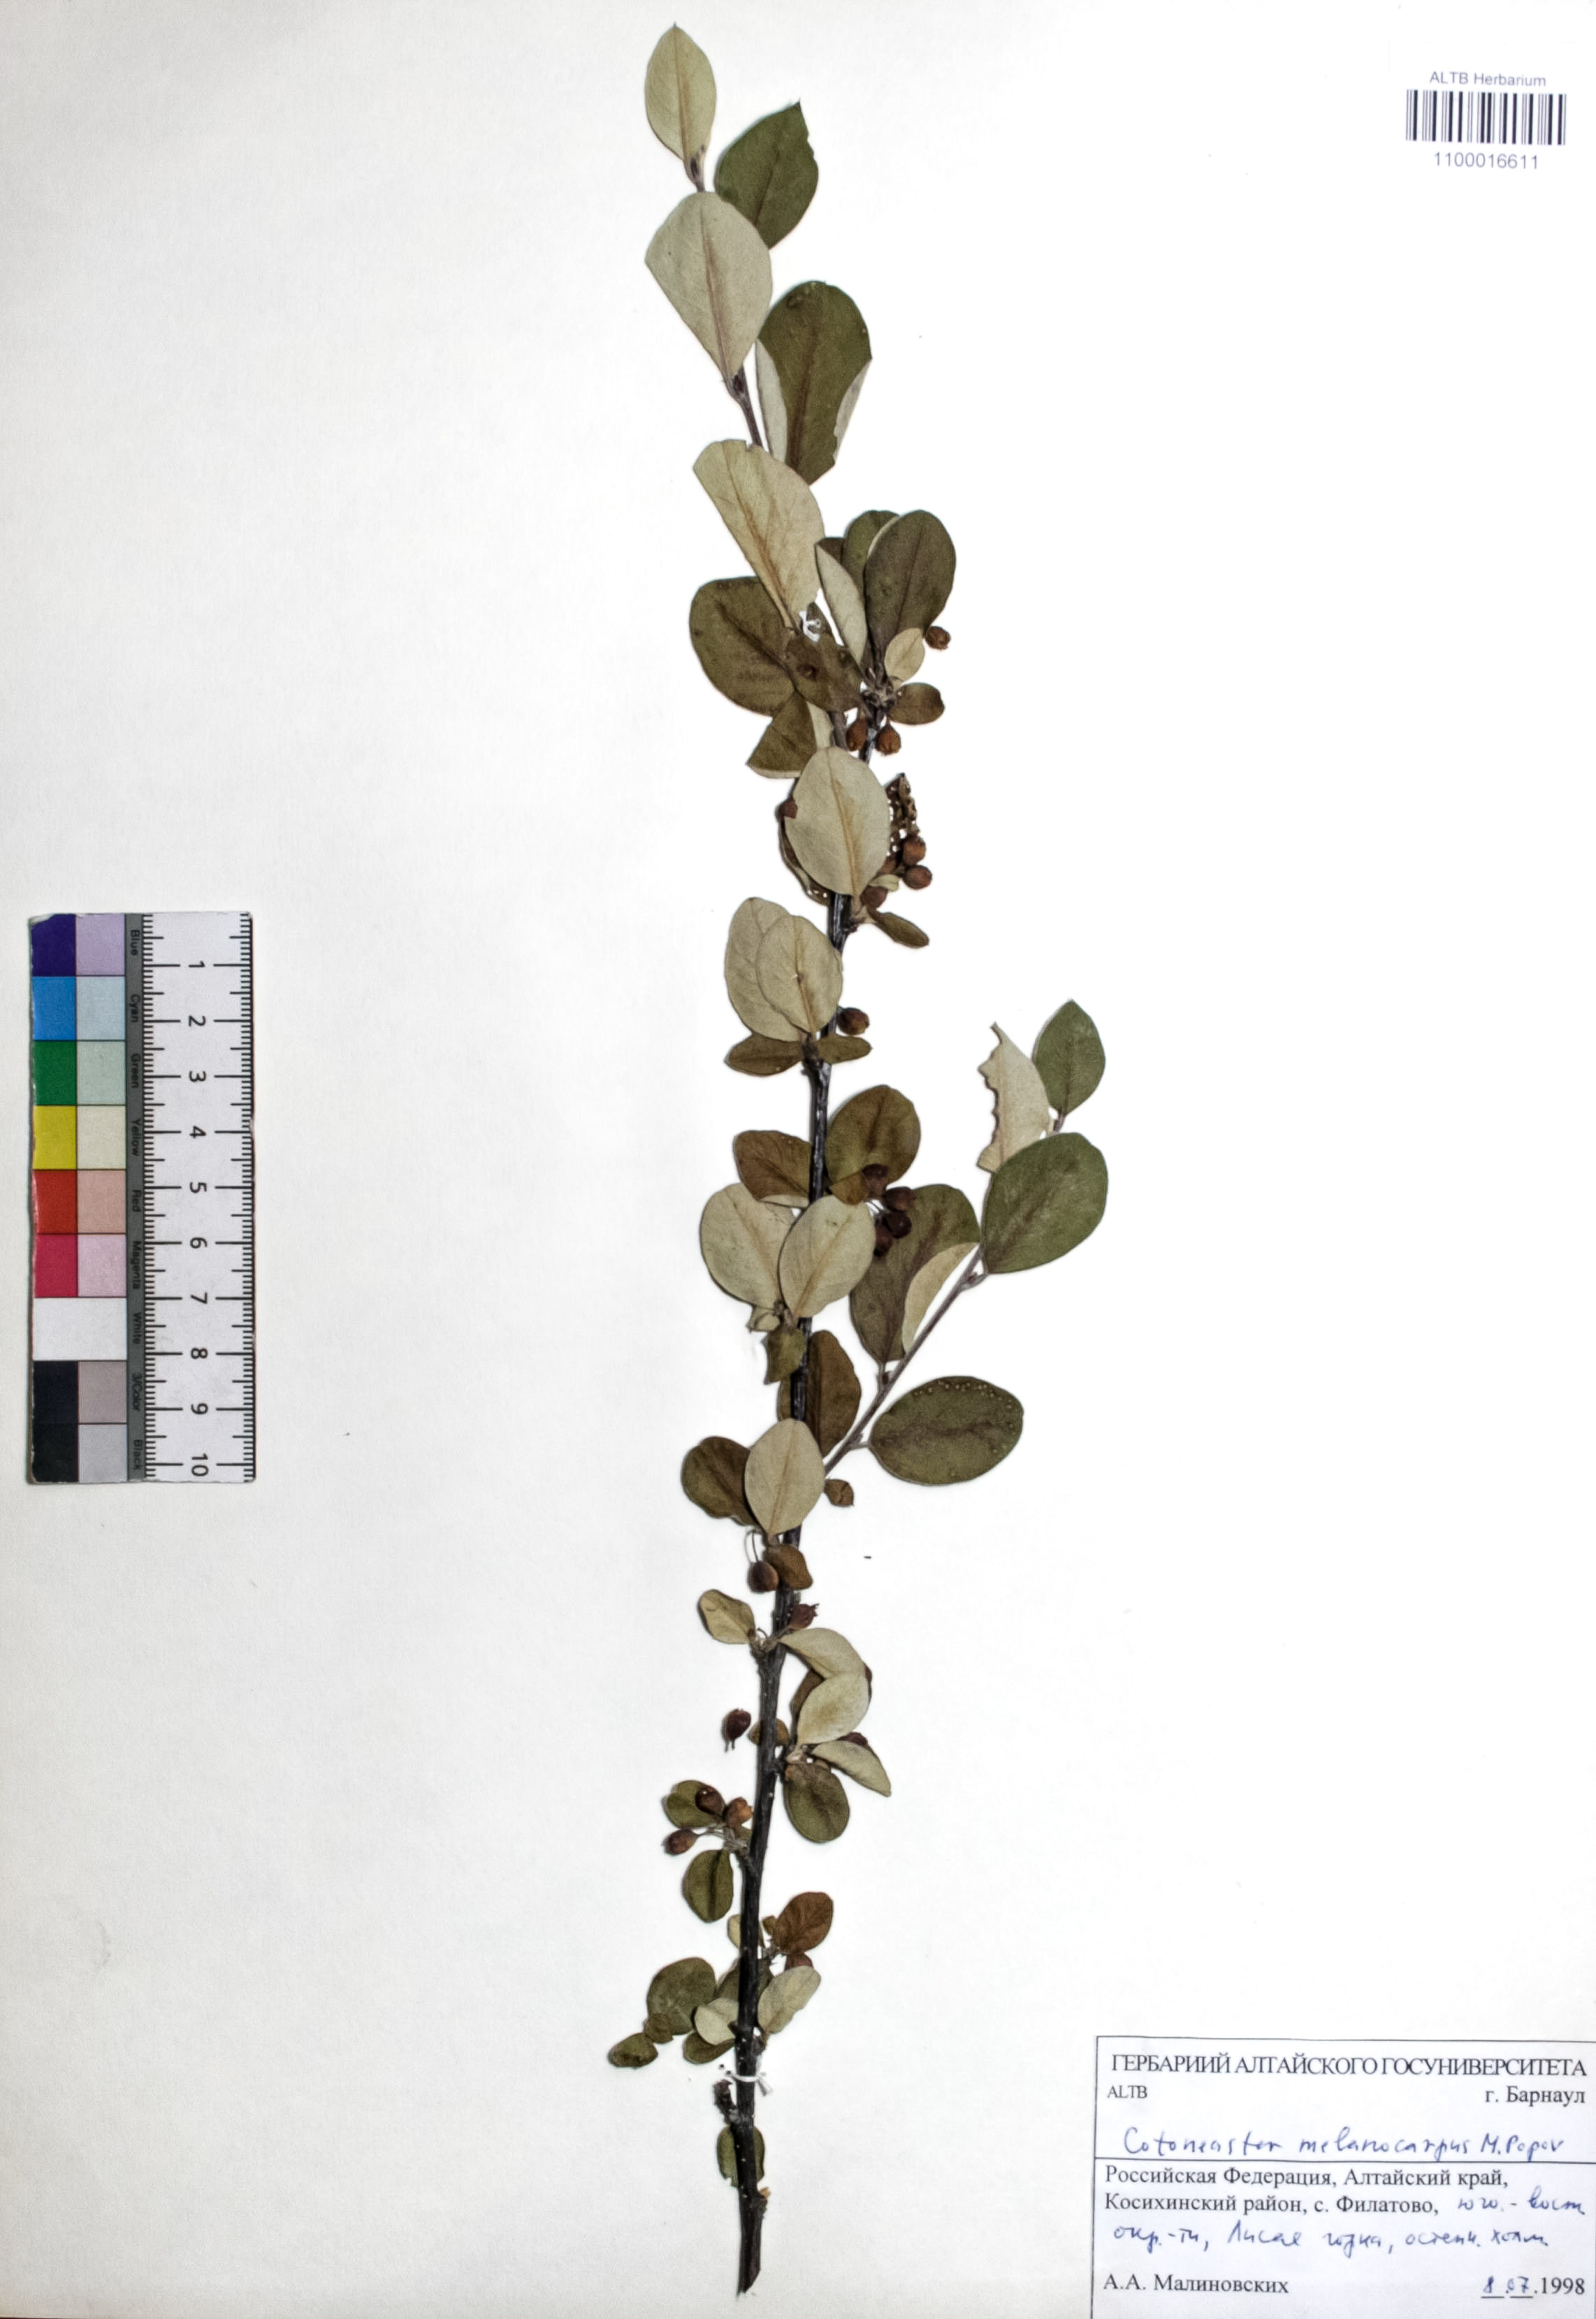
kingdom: Plantae
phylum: Tracheophyta
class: Magnoliopsida
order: Rosales
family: Rosaceae
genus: Cotoneaster
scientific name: Cotoneaster niger
